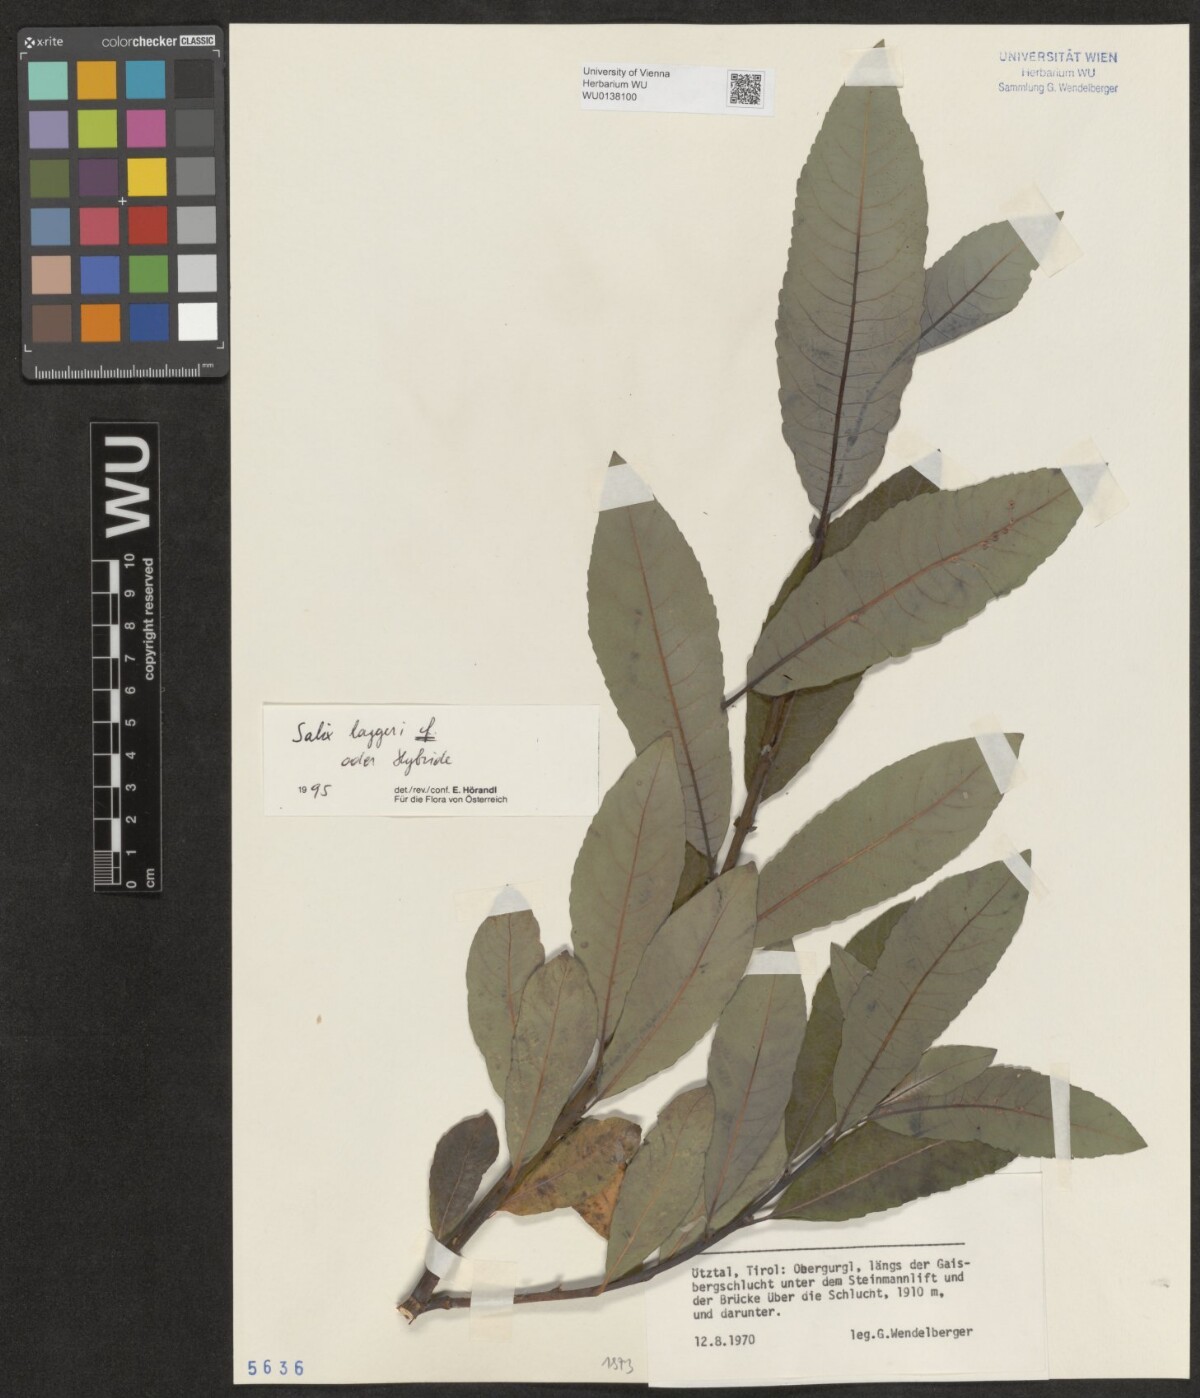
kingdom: Plantae
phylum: Tracheophyta
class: Magnoliopsida
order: Malpighiales
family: Salicaceae
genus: Salix
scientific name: Salix laggeri
